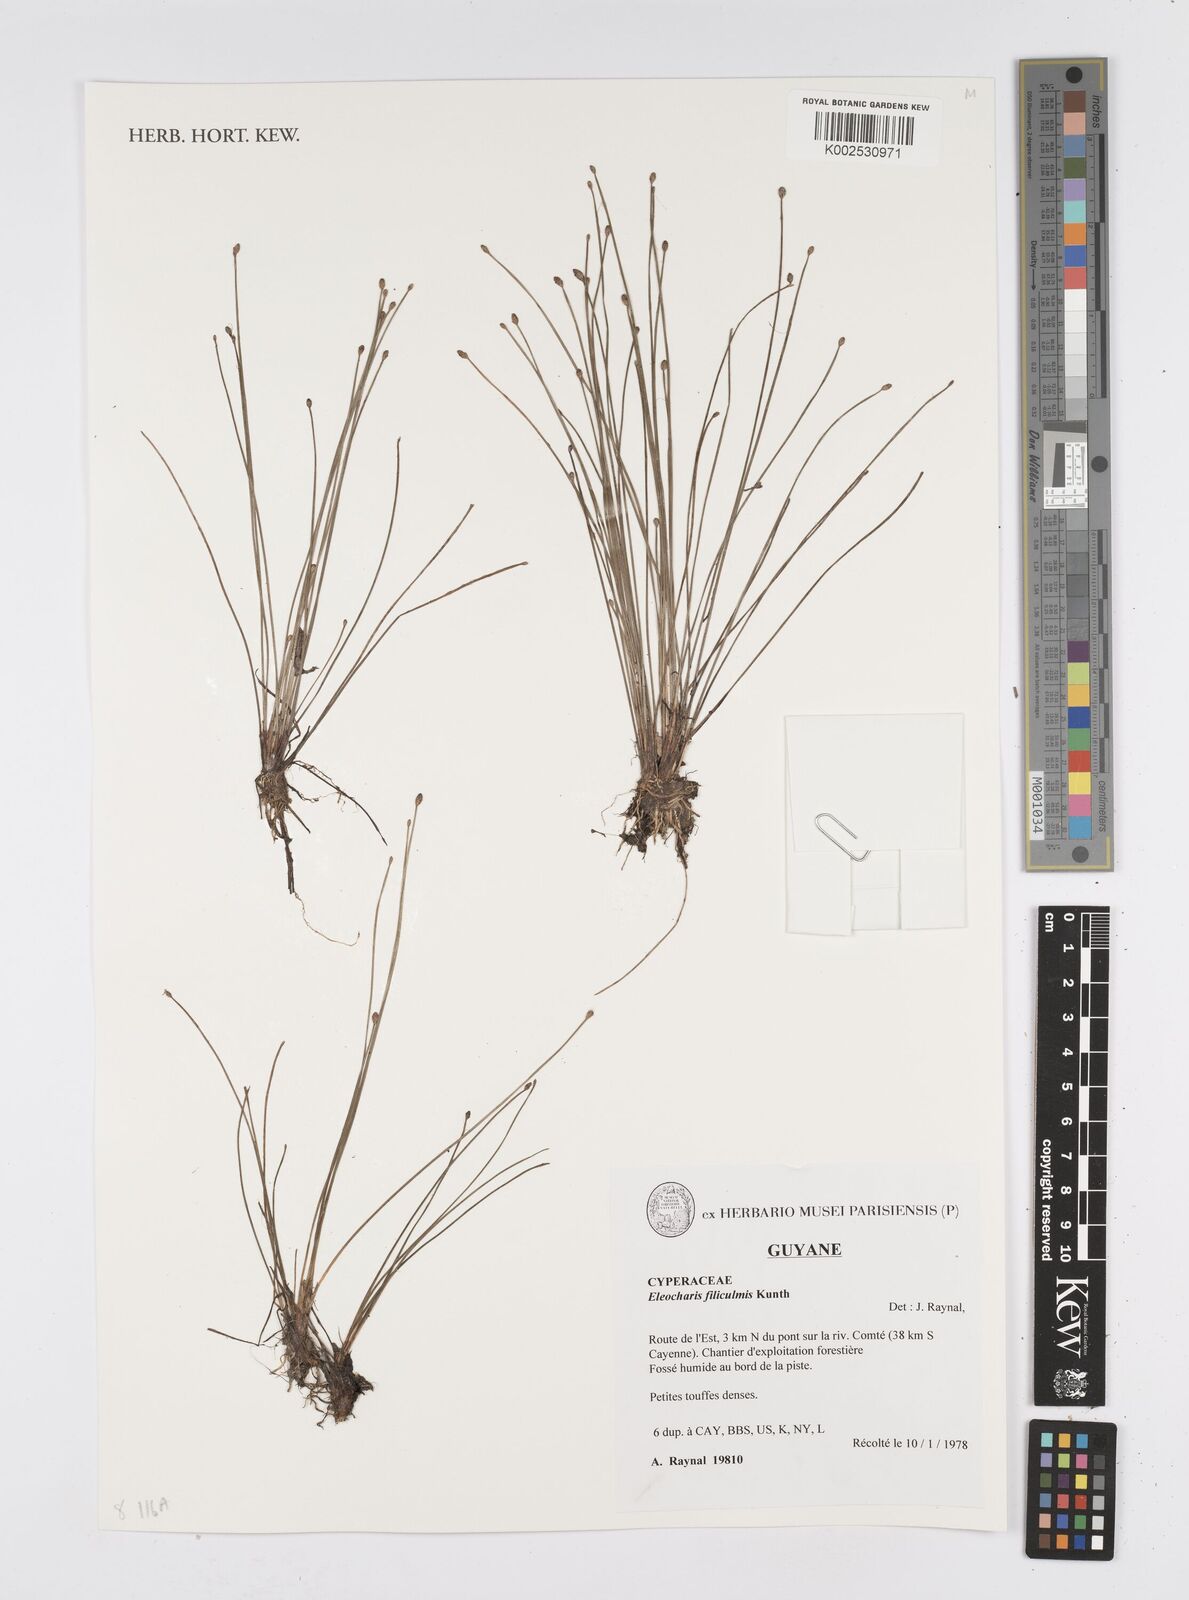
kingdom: Plantae
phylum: Tracheophyta
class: Liliopsida
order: Poales
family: Cyperaceae
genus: Eleocharis
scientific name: Eleocharis tenuis
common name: Dog's hair
